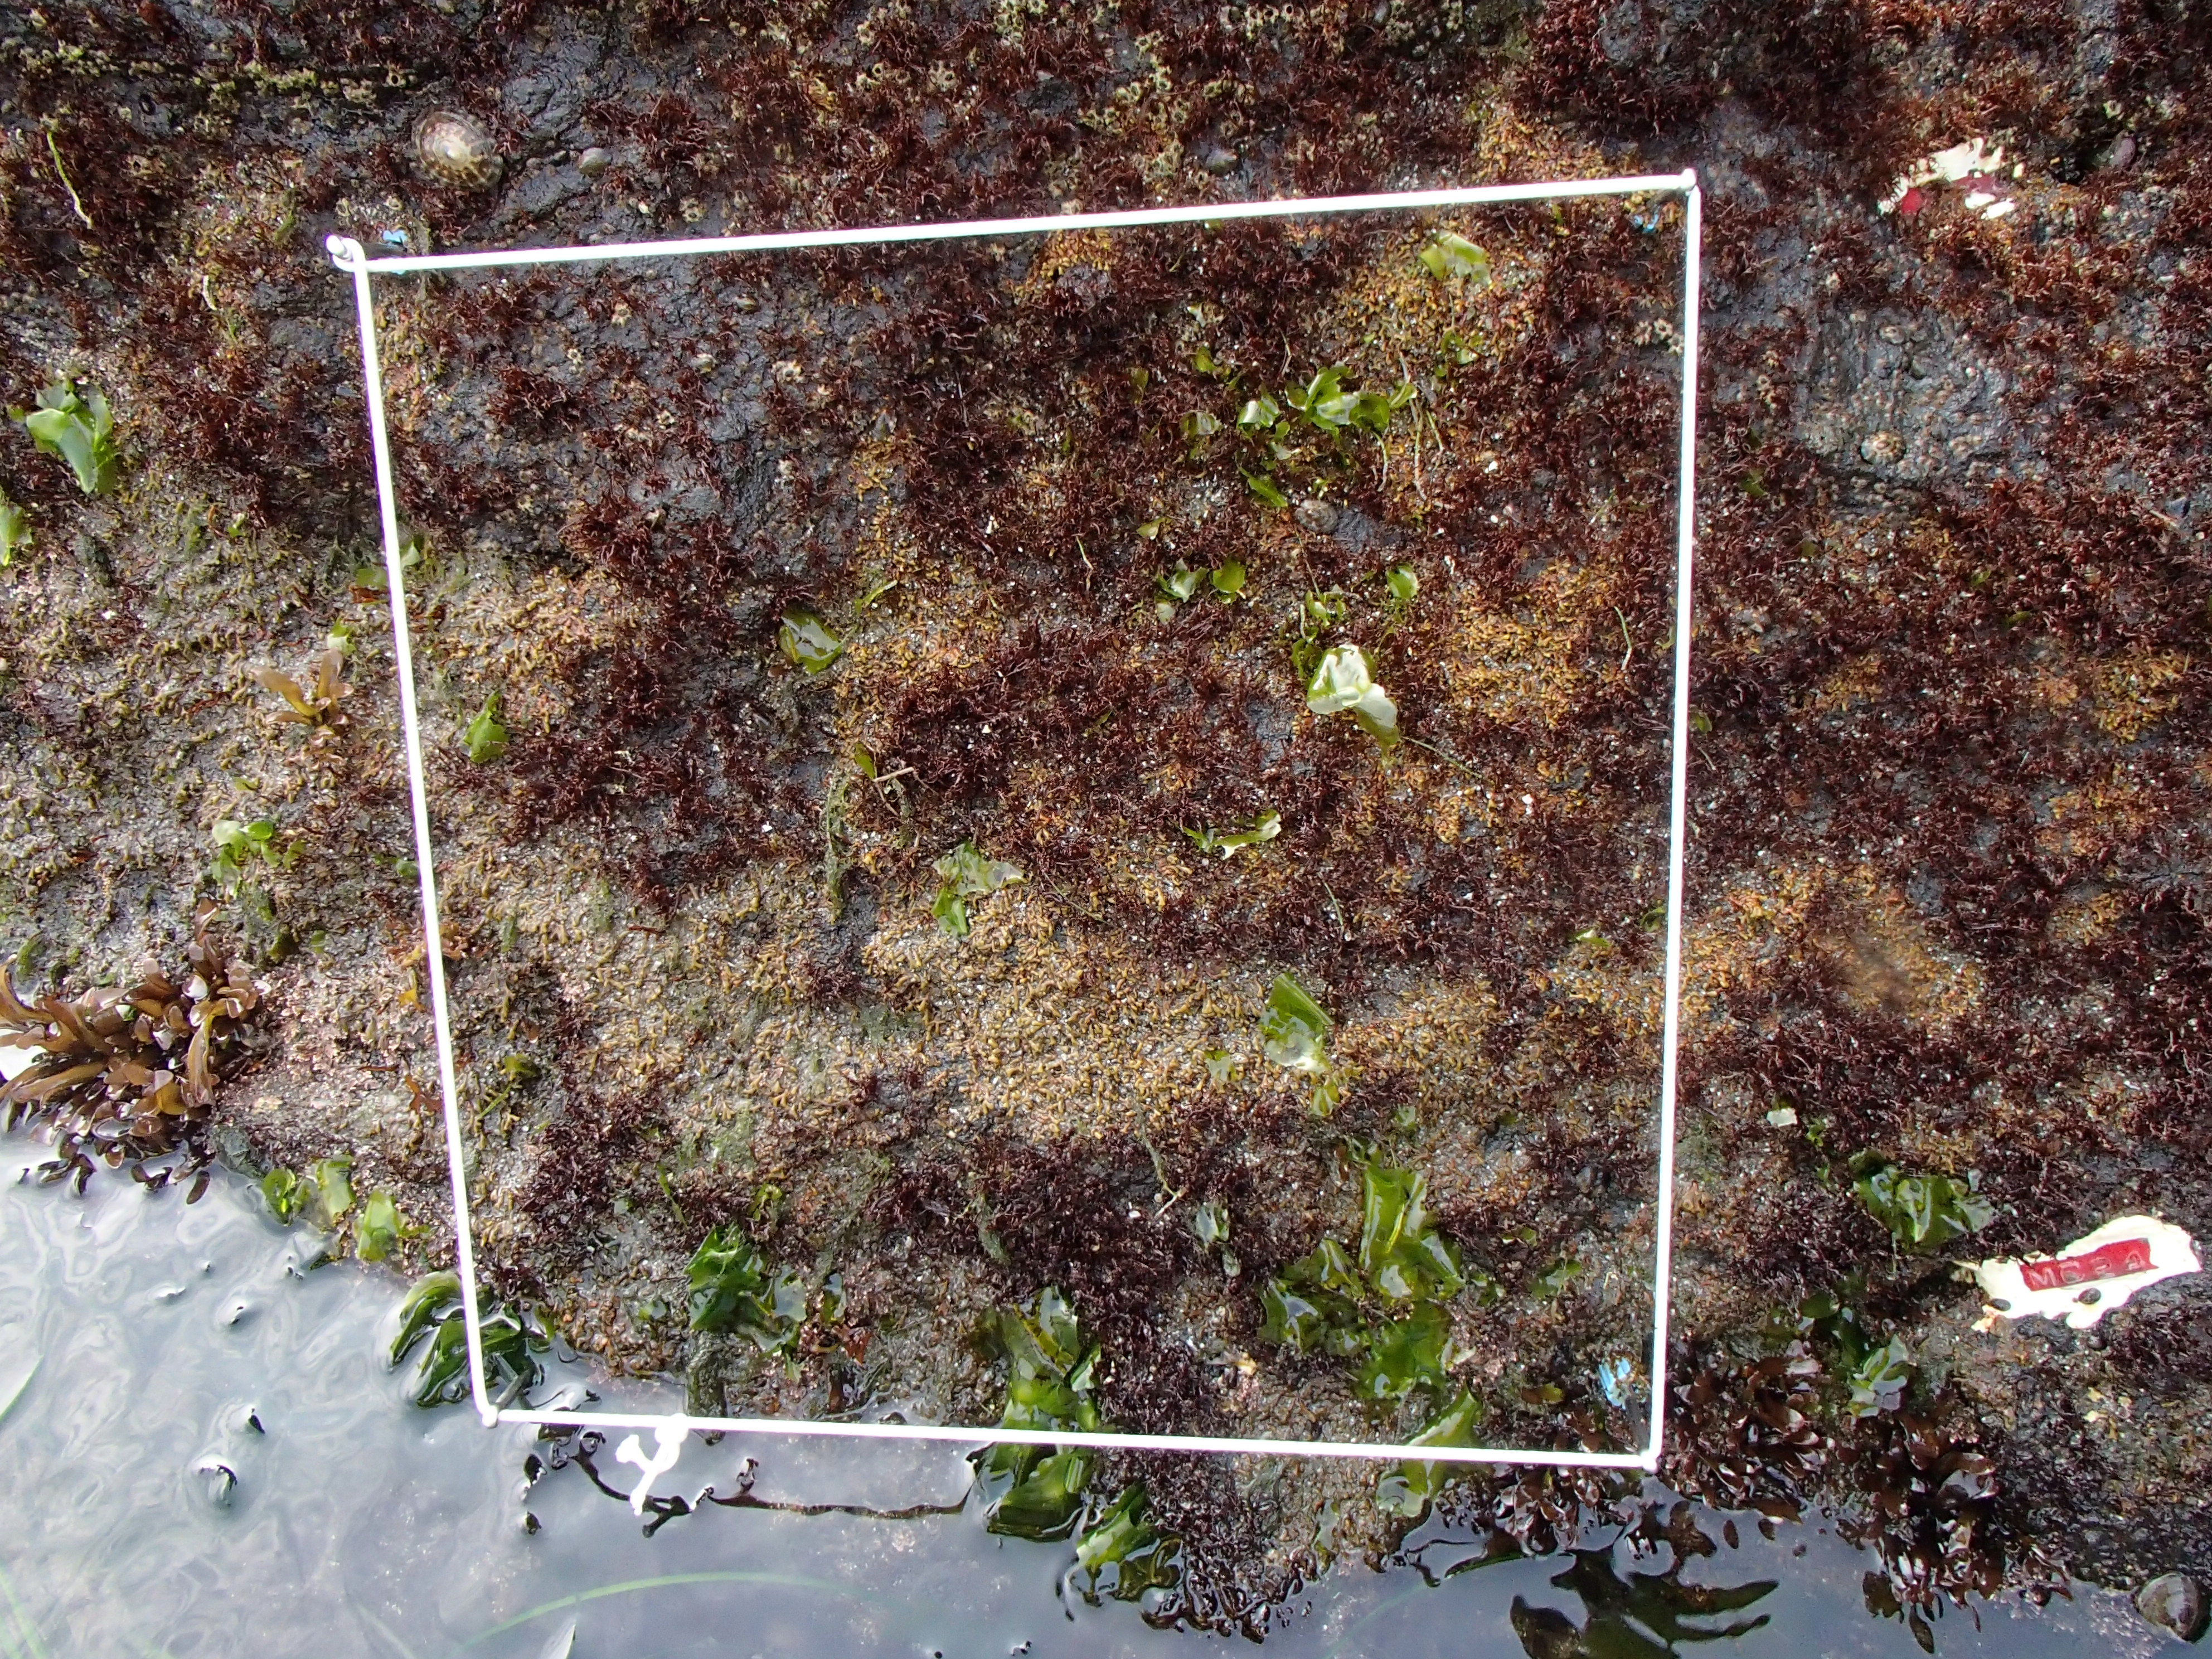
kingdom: Plantae
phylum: Rhodophyta
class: Florideophyceae
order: Corallinales
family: Corallinaceae
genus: Corallina
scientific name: Corallina pilulifera
